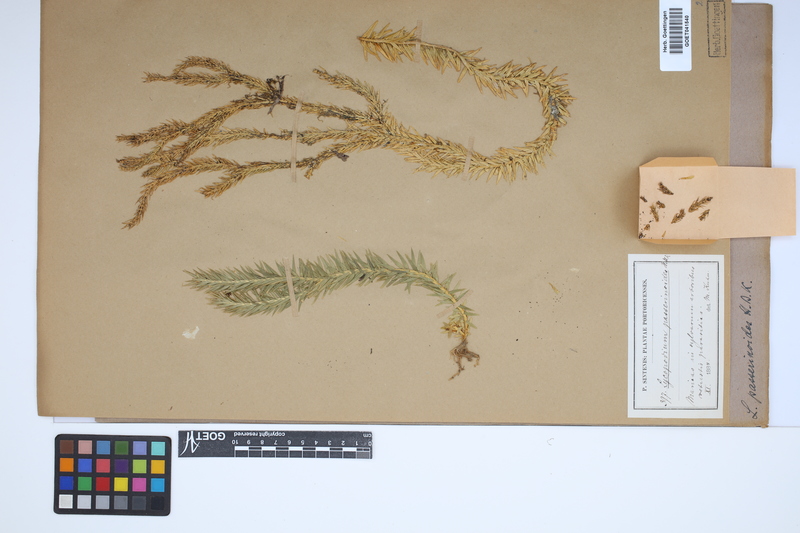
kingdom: Plantae
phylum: Tracheophyta
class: Lycopodiopsida
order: Lycopodiales
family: Lycopodiaceae
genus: Phlegmariurus
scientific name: Phlegmariurus taxifolius
